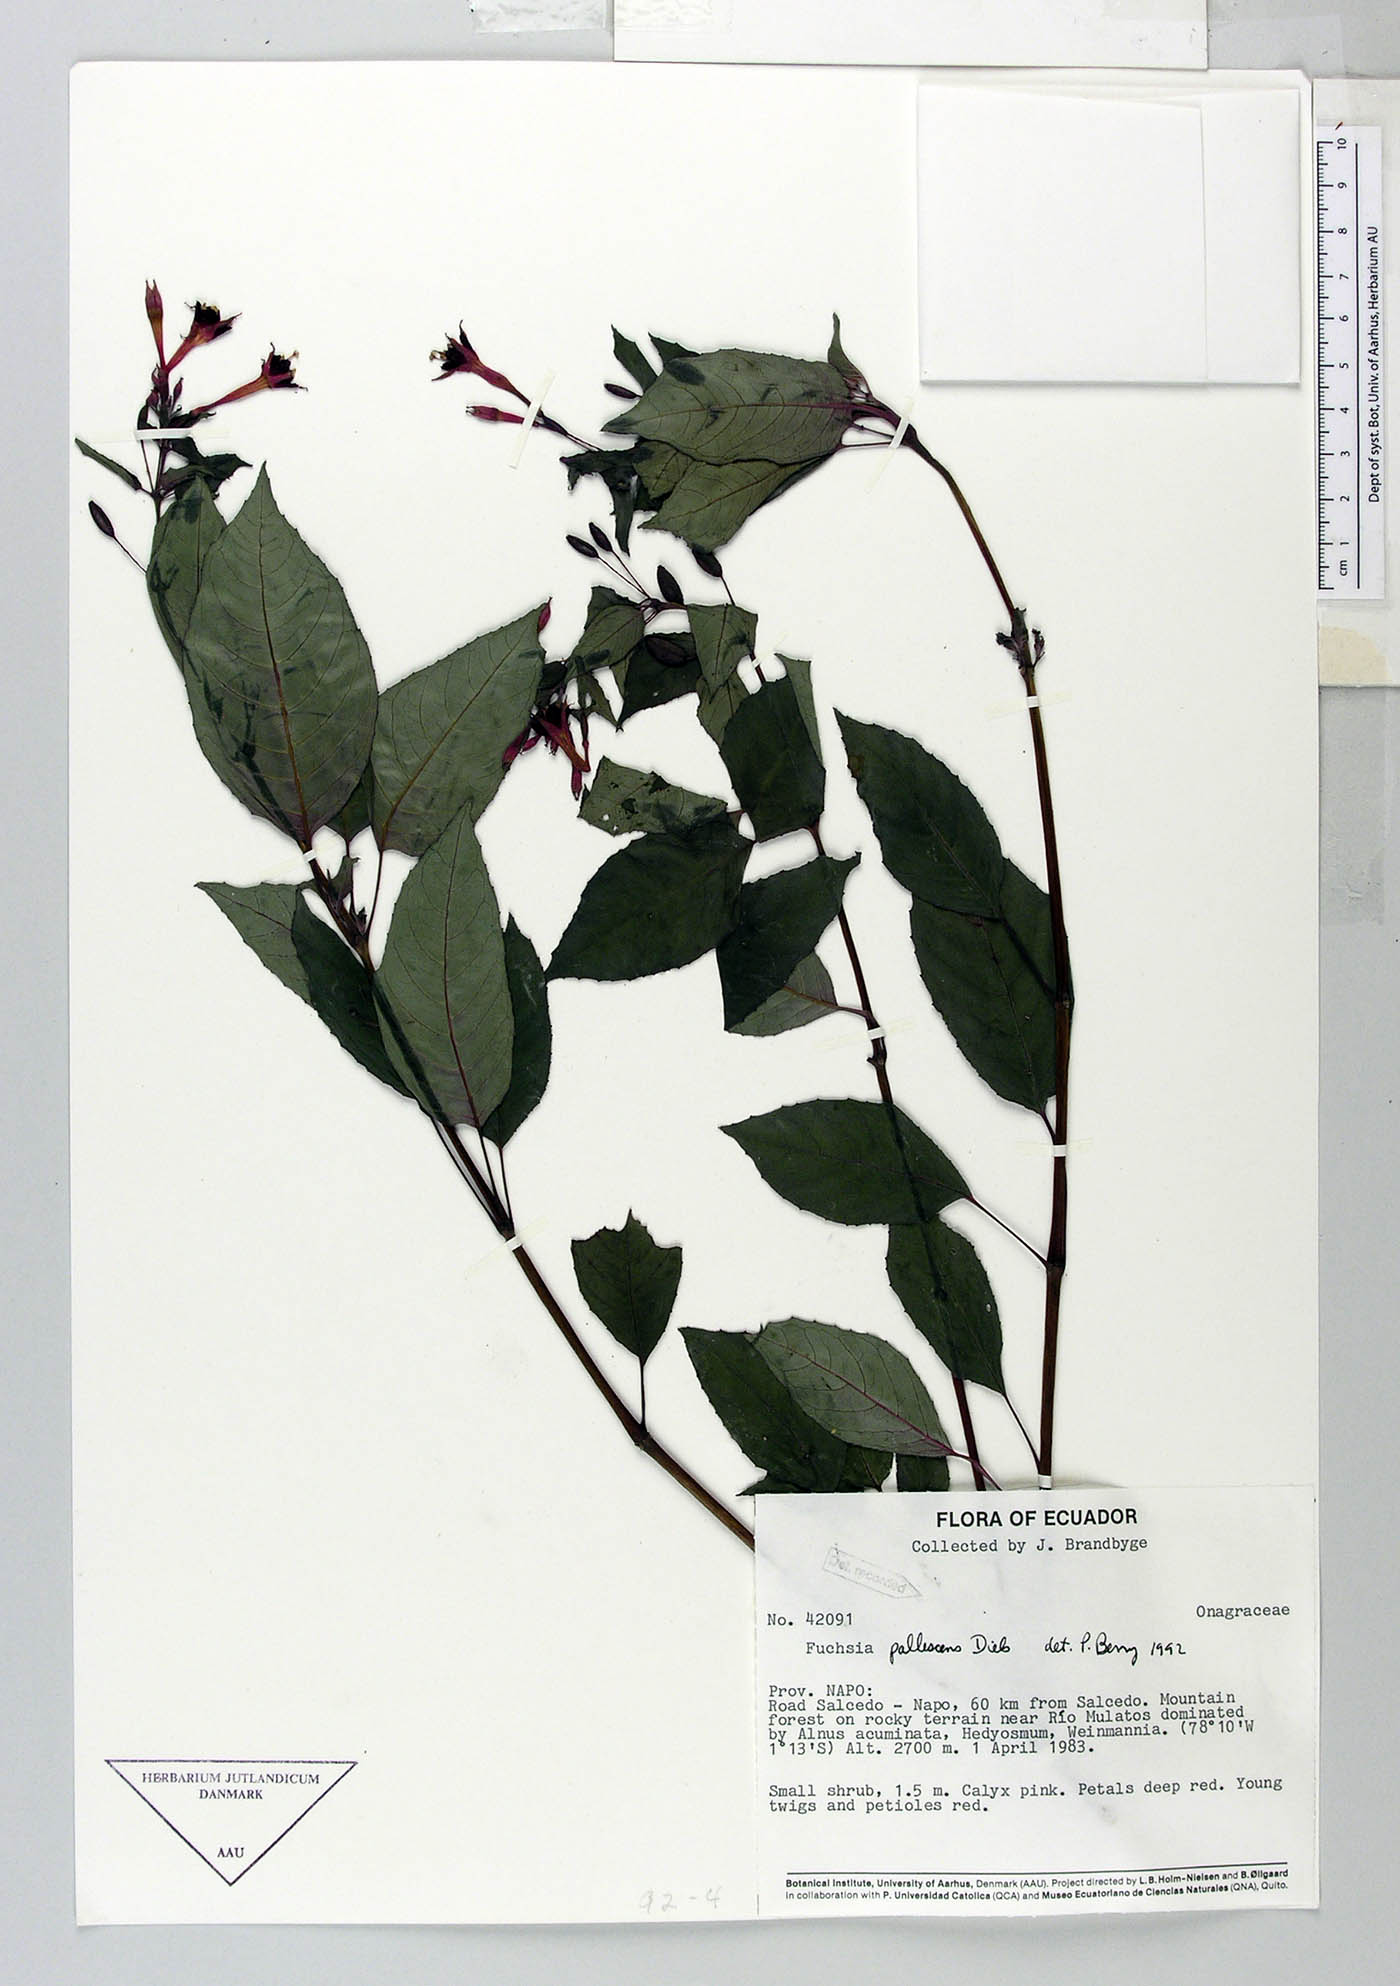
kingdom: Plantae
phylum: Tracheophyta
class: Magnoliopsida
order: Myrtales
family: Onagraceae
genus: Fuchsia
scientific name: Fuchsia pallescens
